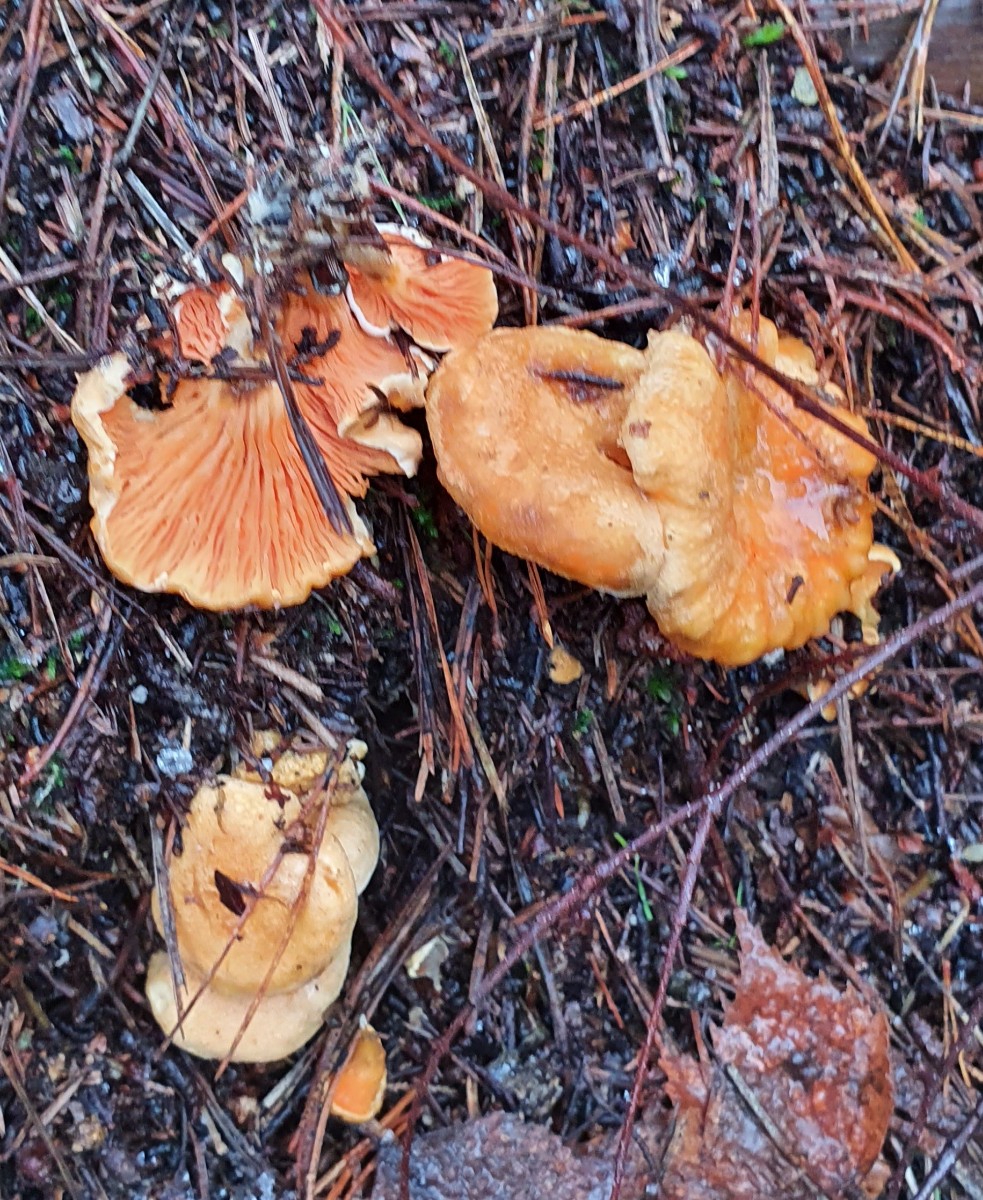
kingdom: Fungi
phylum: Basidiomycota
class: Agaricomycetes
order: Boletales
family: Hygrophoropsidaceae
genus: Hygrophoropsis
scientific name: Hygrophoropsis aurantiaca
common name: almindelig orangekantarel
